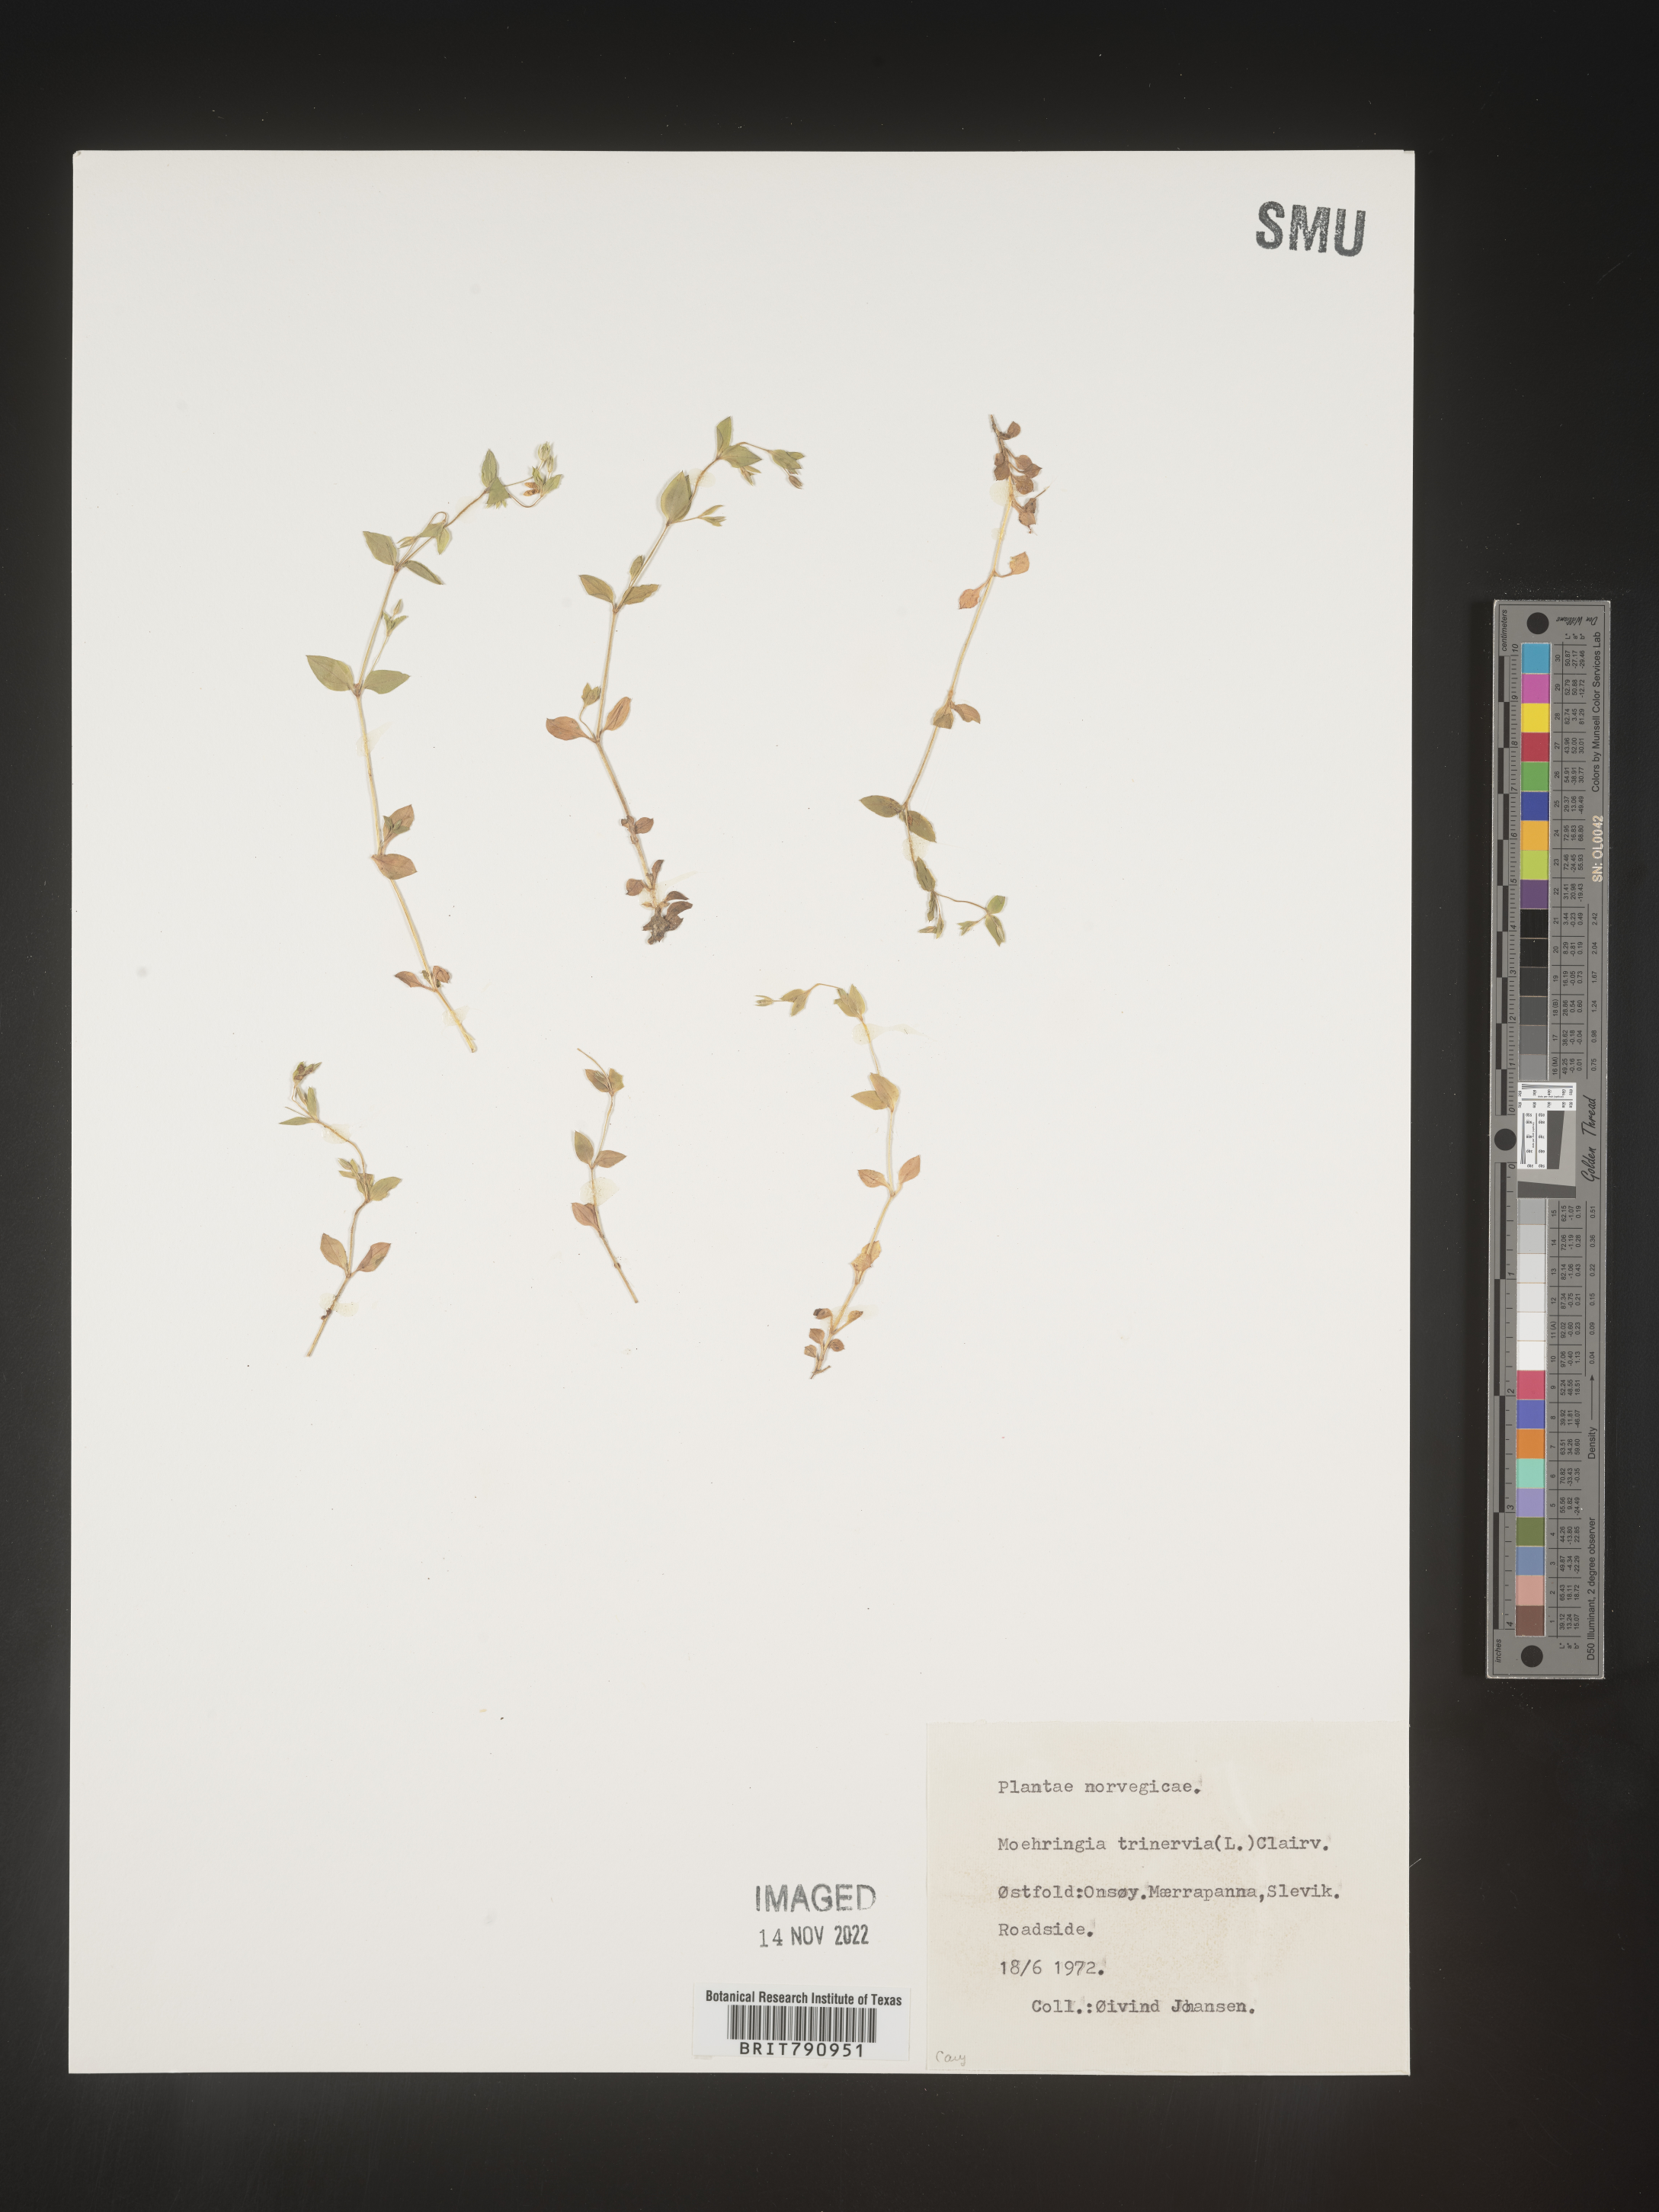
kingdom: Plantae
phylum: Tracheophyta
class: Magnoliopsida
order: Caryophyllales
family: Caryophyllaceae
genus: Moehringia
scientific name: Moehringia
